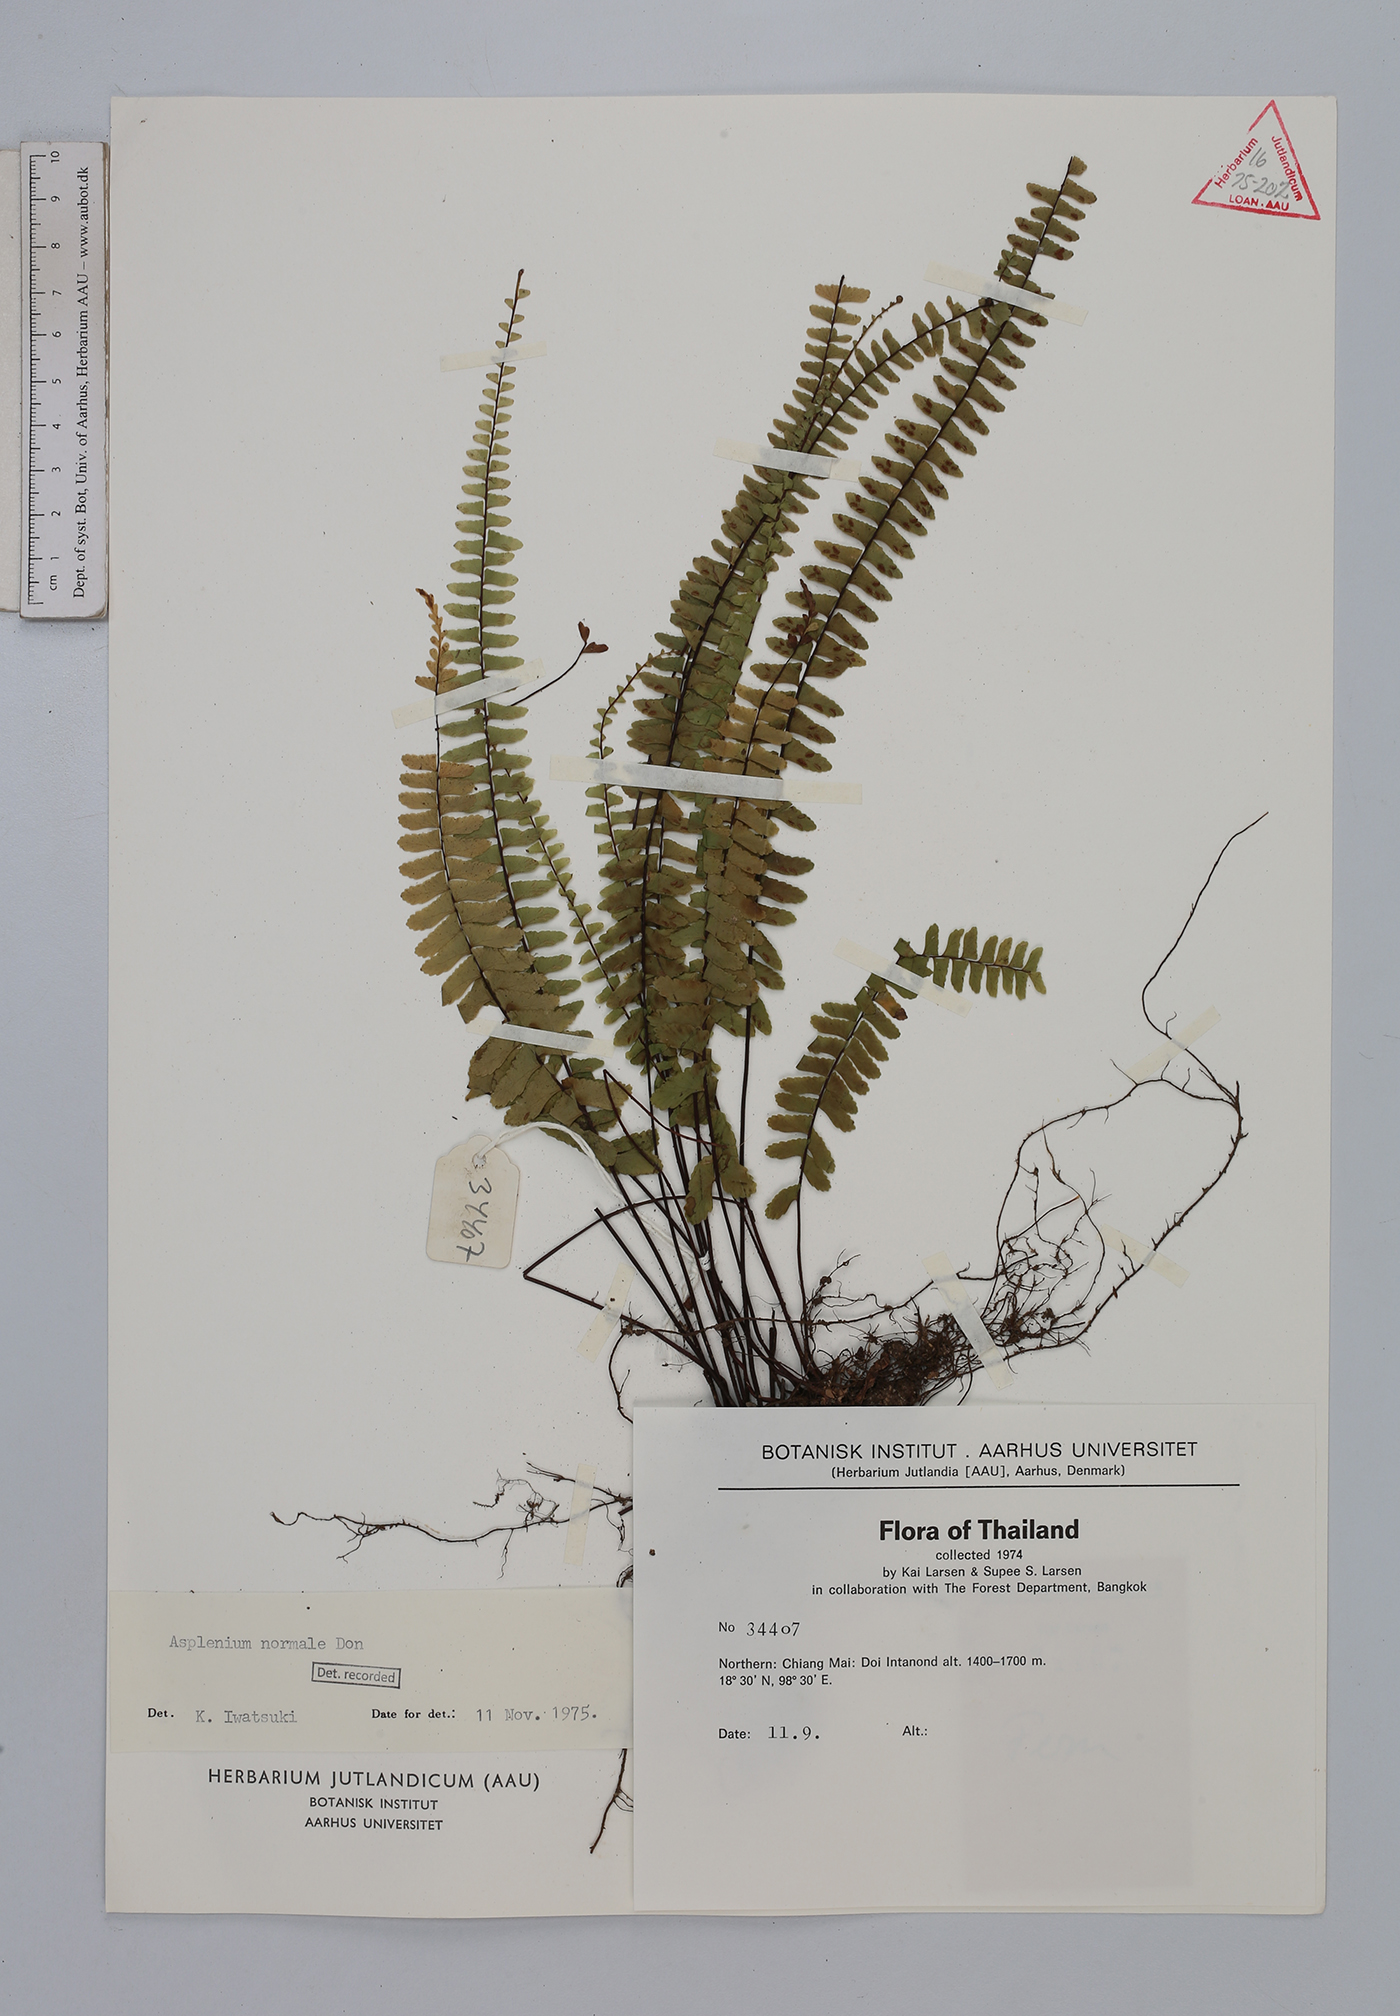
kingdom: Plantae
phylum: Tracheophyta
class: Polypodiopsida
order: Polypodiales
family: Aspleniaceae
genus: Asplenium
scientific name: Asplenium normale
